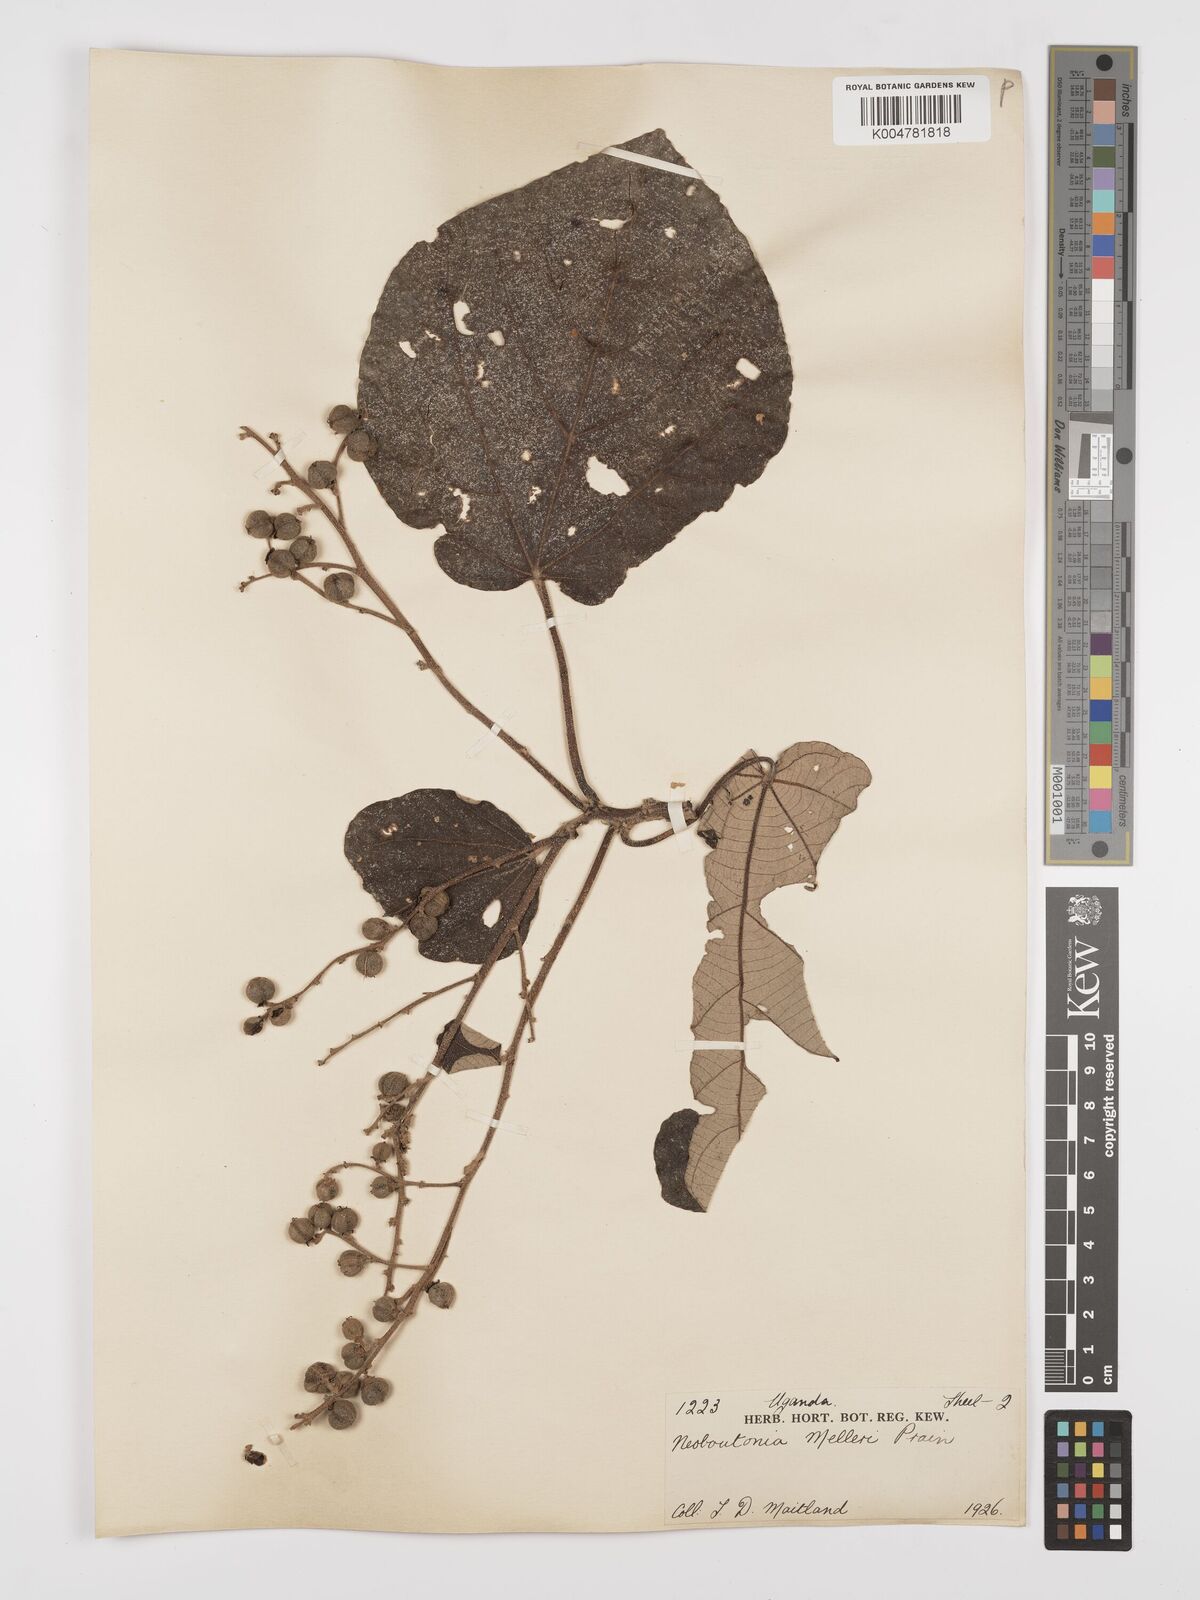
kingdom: Plantae
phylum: Tracheophyta
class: Magnoliopsida
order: Malpighiales
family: Euphorbiaceae
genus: Neoboutonia
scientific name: Neoboutonia melleri
